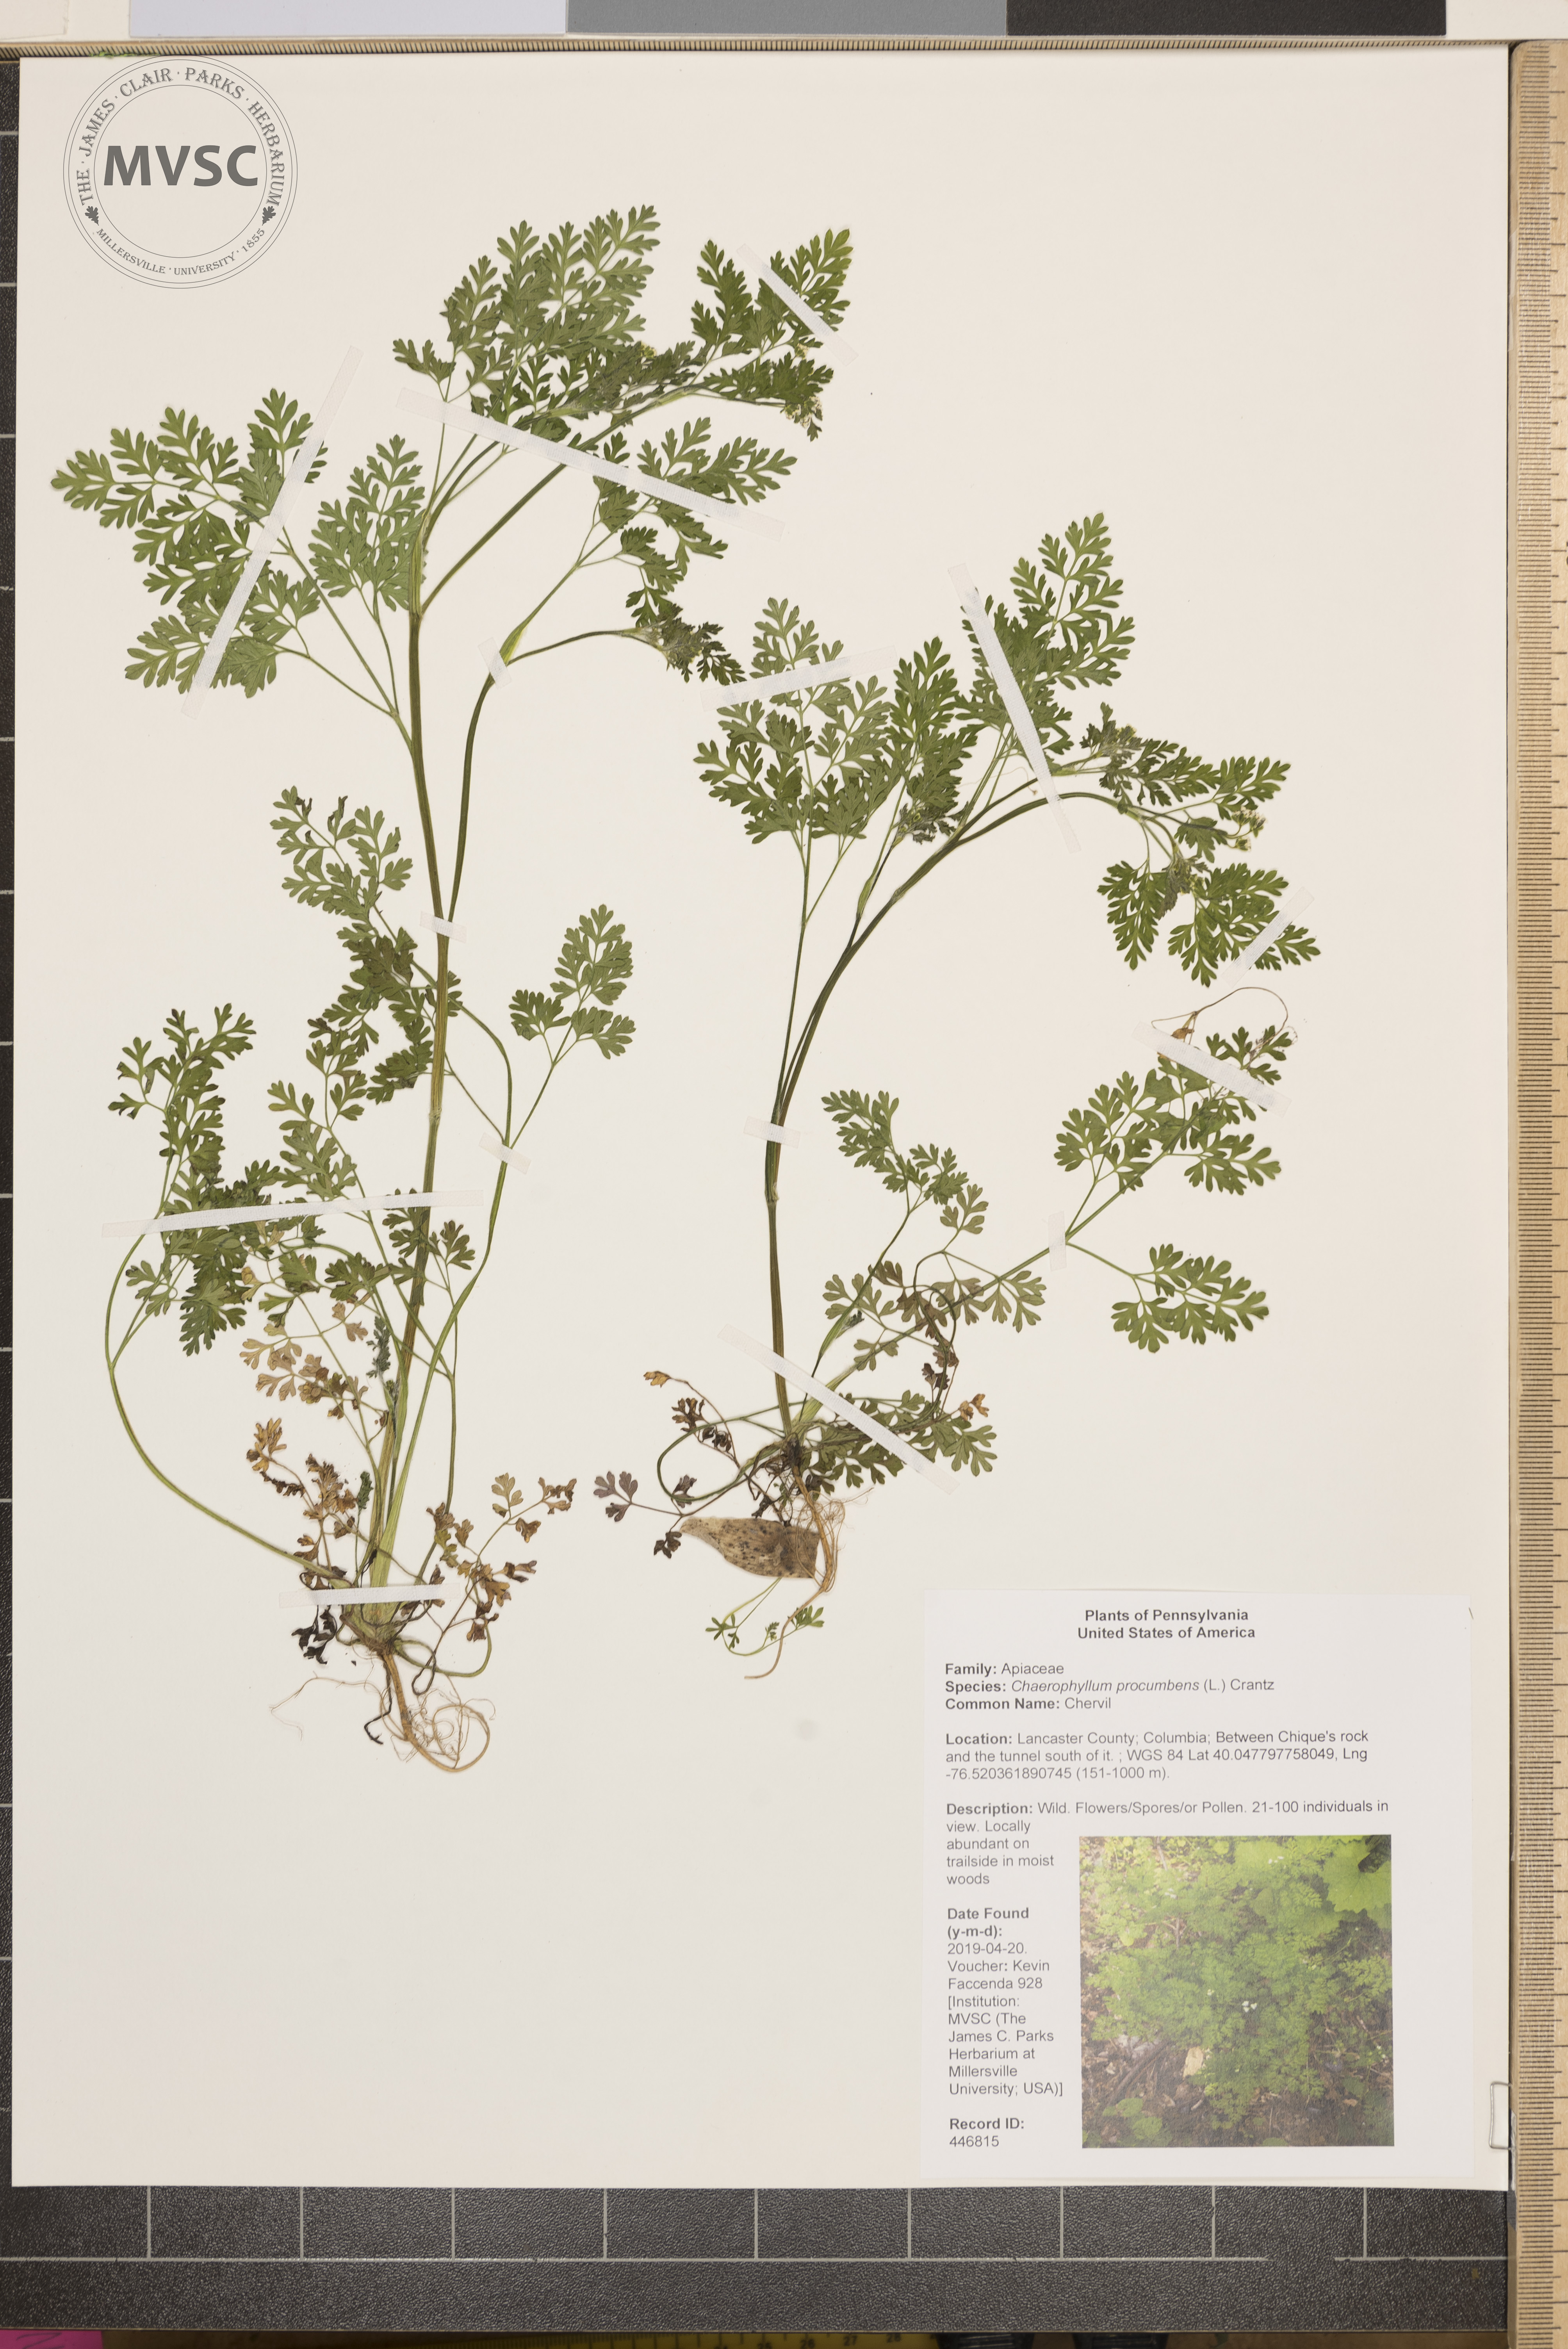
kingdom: Plantae
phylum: Tracheophyta
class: Magnoliopsida
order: Apiales
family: Apiaceae
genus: Chaerophyllum
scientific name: Chaerophyllum procumbens
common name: Chervil
